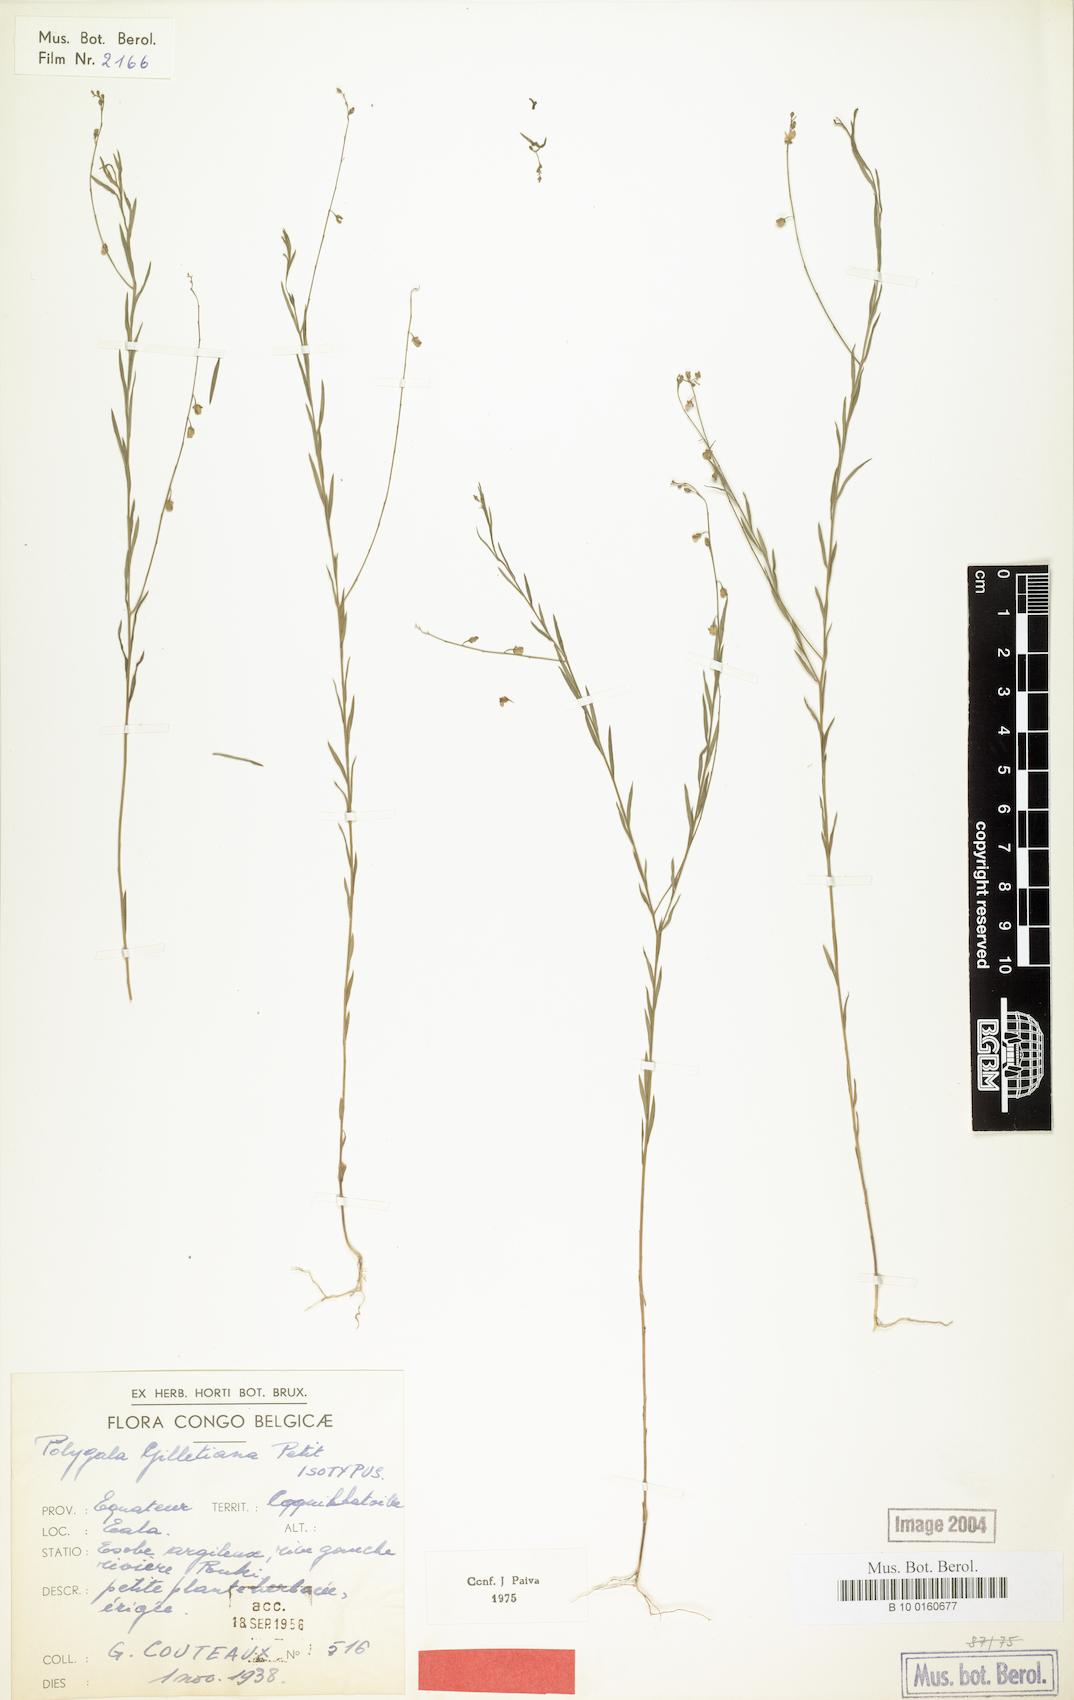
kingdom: Plantae
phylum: Tracheophyta
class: Magnoliopsida
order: Fabales
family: Polygalaceae
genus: Polygala
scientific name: Polygala gilletiana
